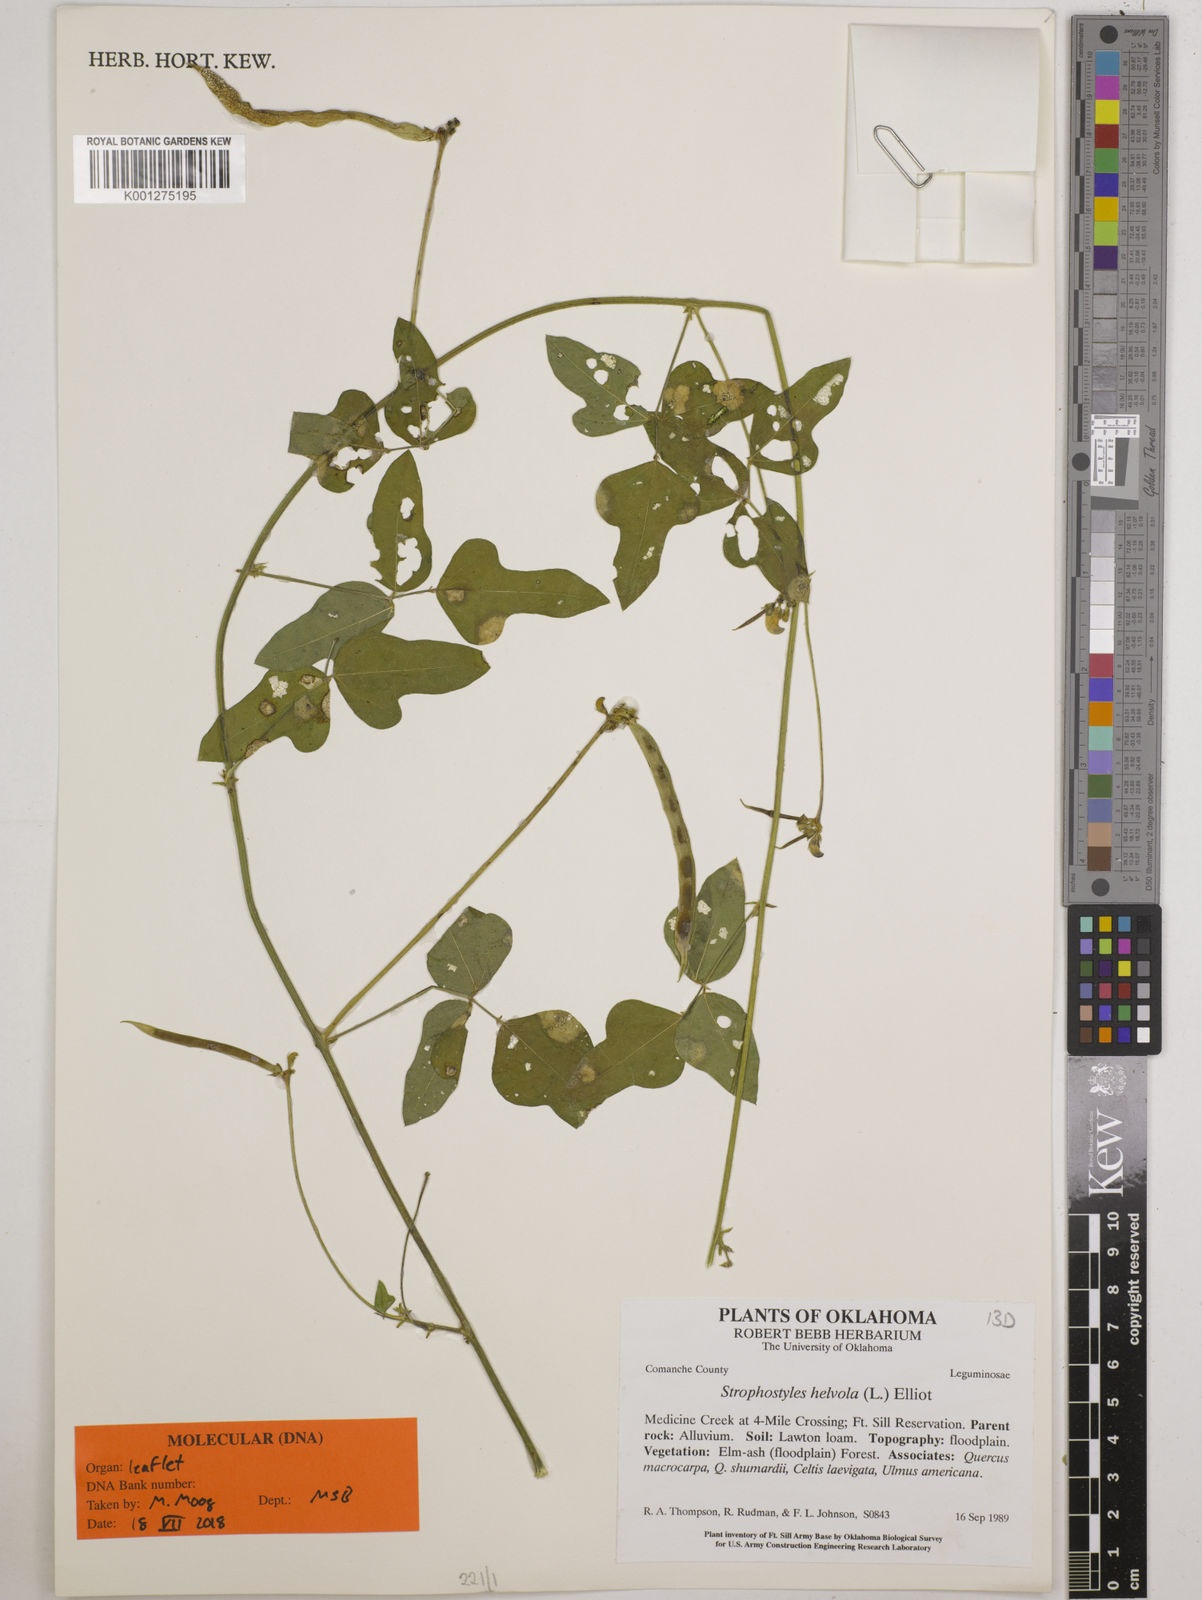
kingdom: Plantae
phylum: Tracheophyta
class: Magnoliopsida
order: Fabales
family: Fabaceae
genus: Strophostyles
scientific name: Strophostyles helvola
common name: Trailing wild bean
